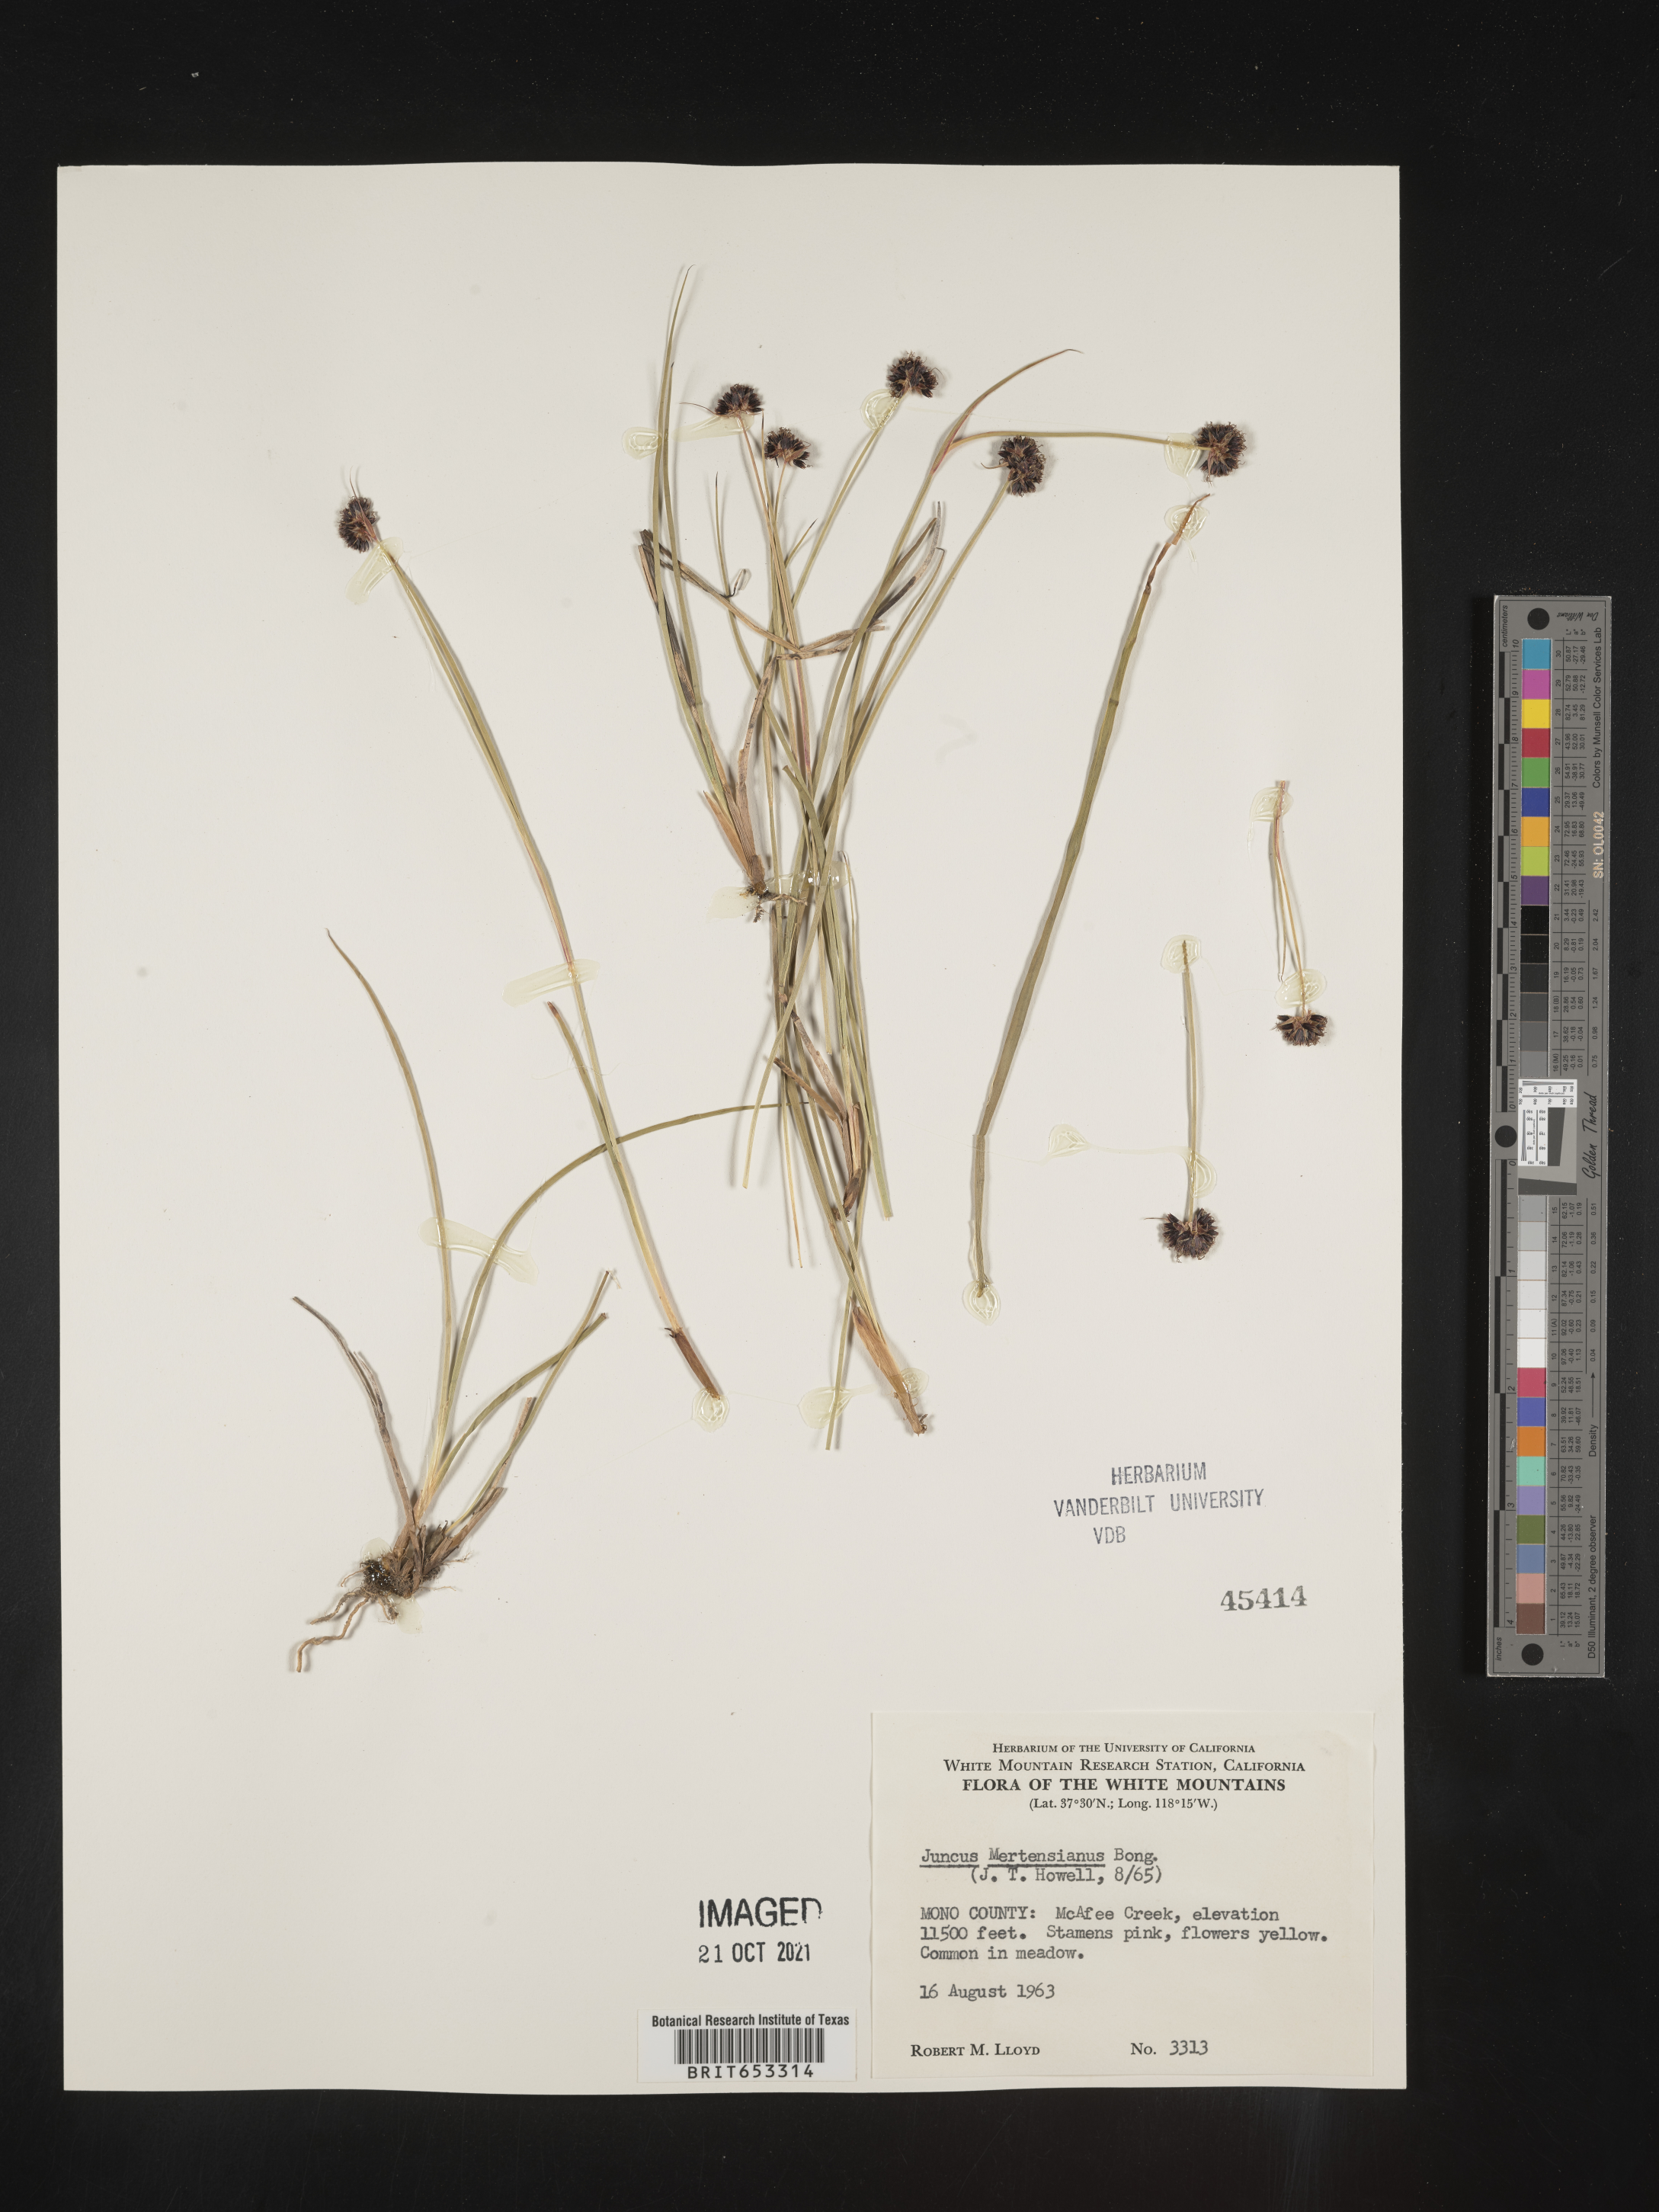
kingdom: Plantae
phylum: Tracheophyta
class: Liliopsida
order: Poales
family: Juncaceae
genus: Juncus
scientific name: Juncus mertensianus
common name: Merten's rush
